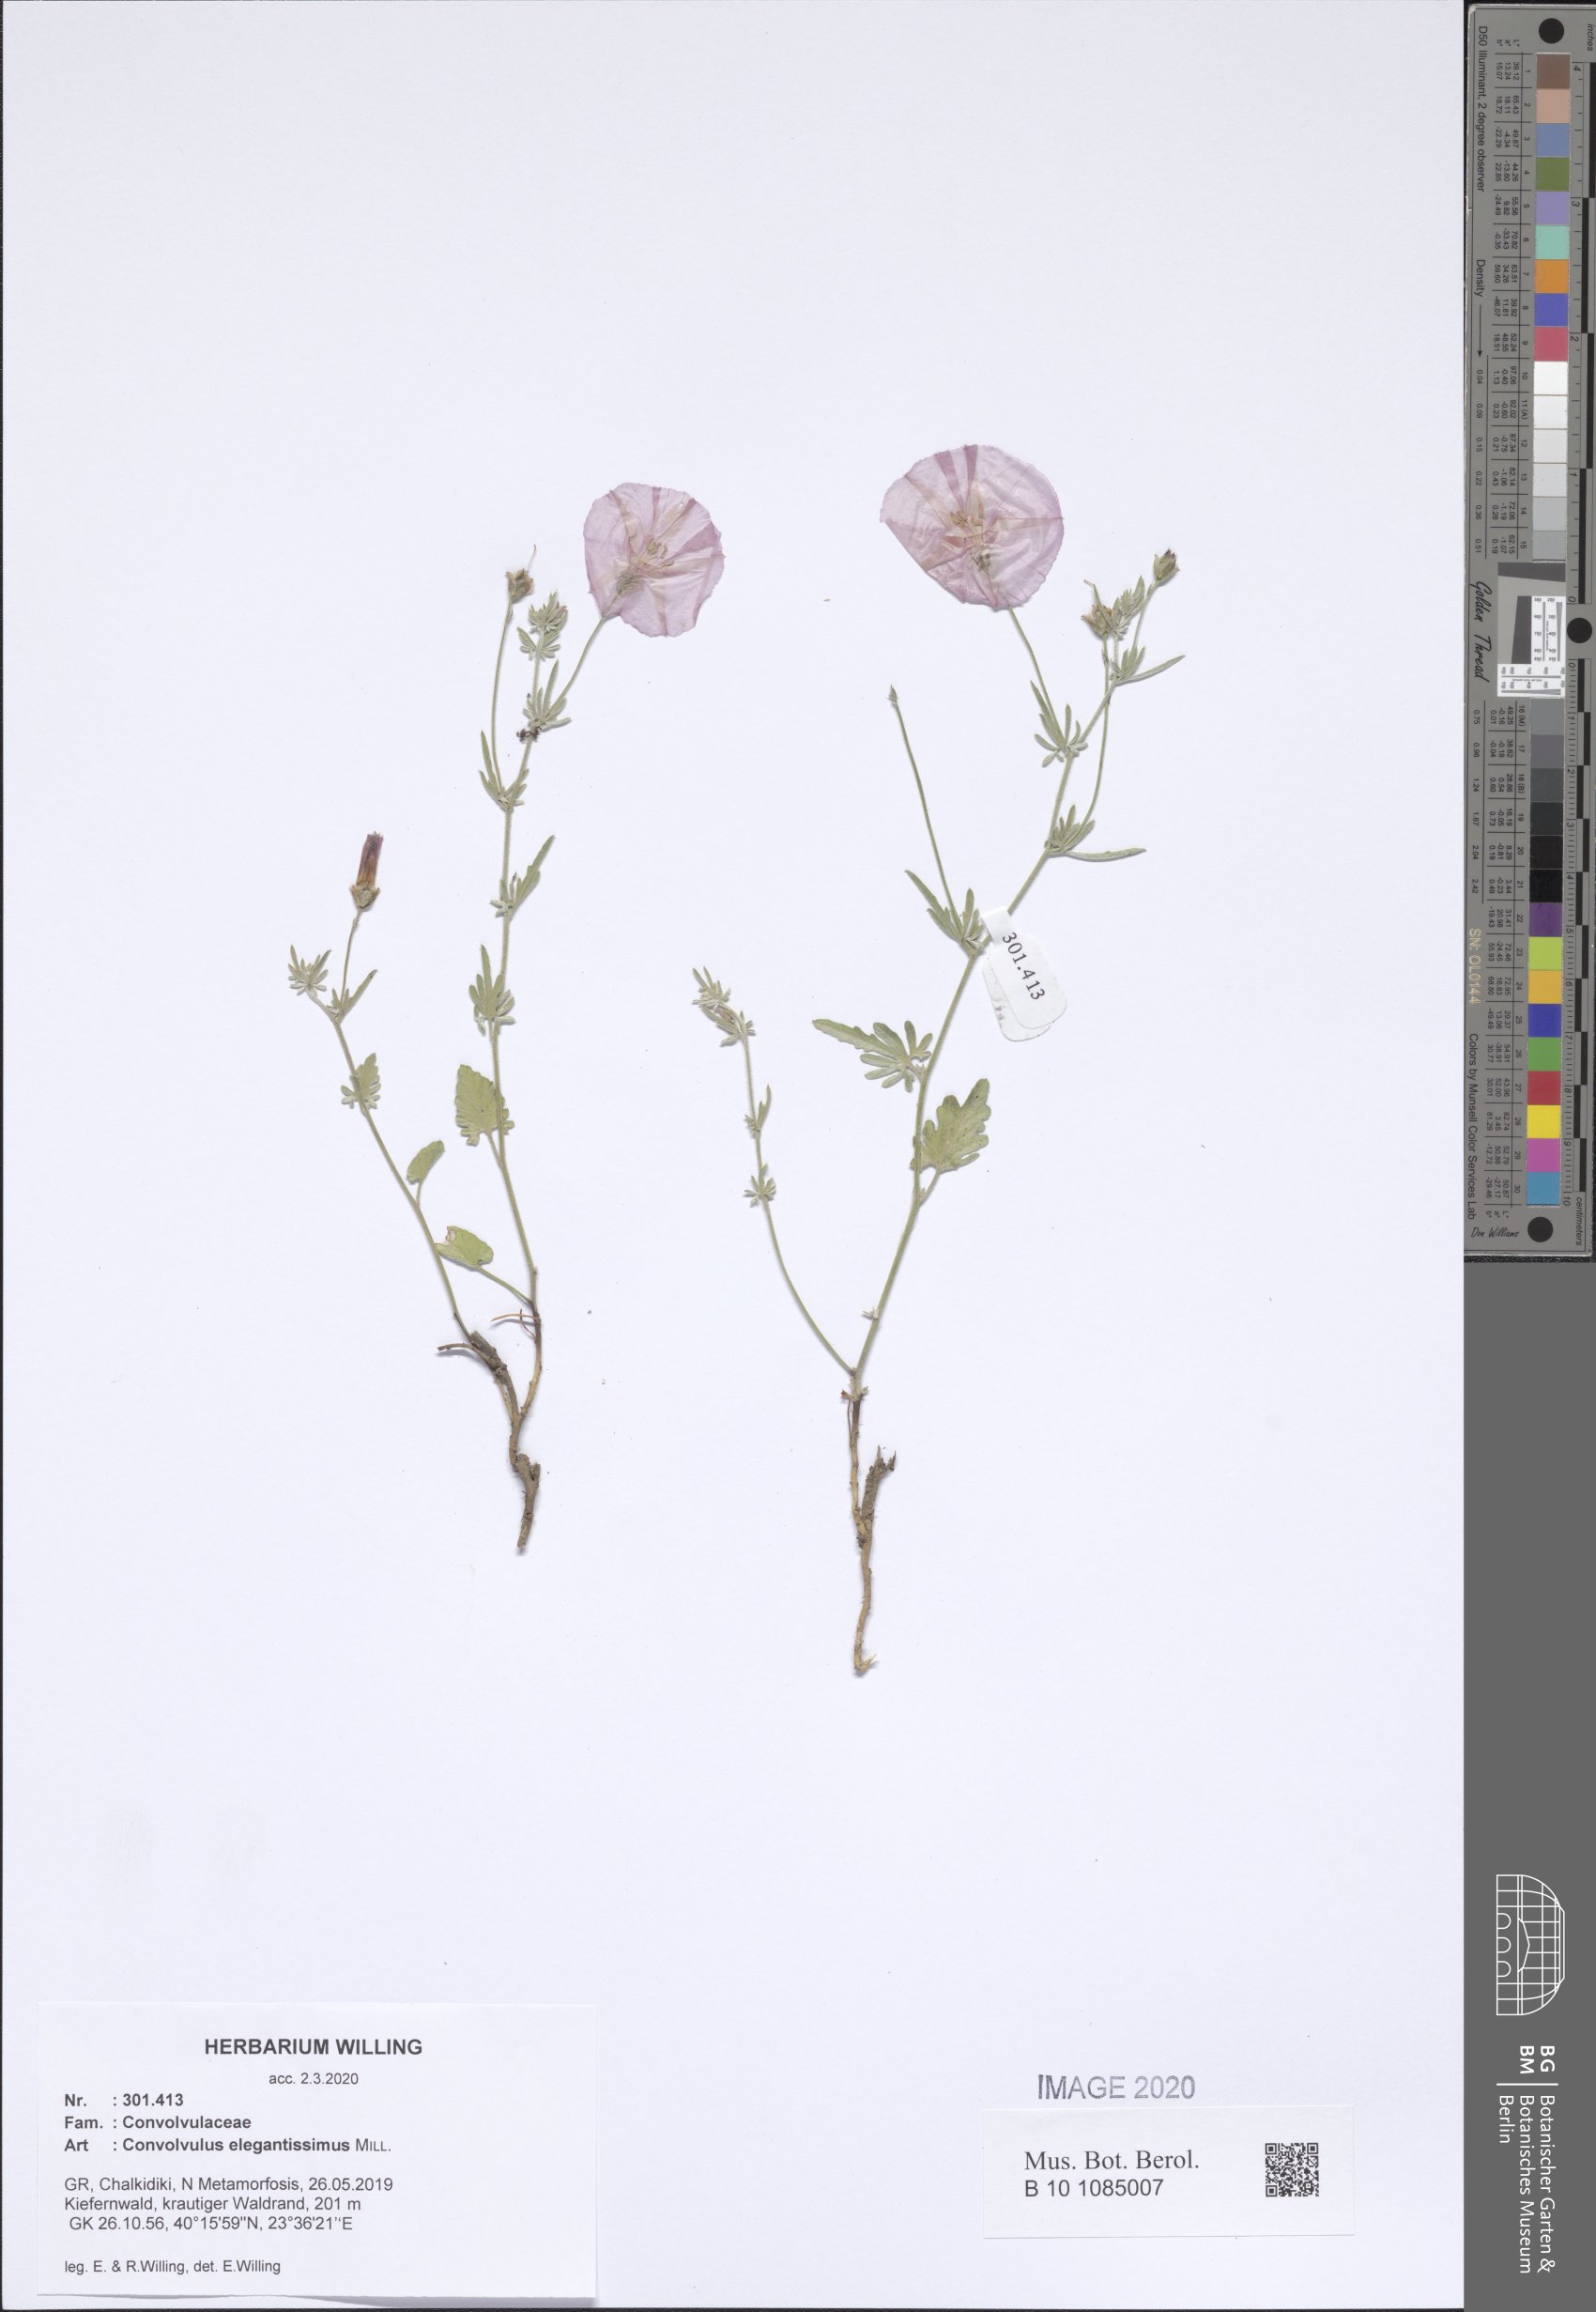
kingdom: Plantae
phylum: Tracheophyta
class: Magnoliopsida
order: Solanales
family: Convolvulaceae
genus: Convolvulus
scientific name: Convolvulus elegantissimus
